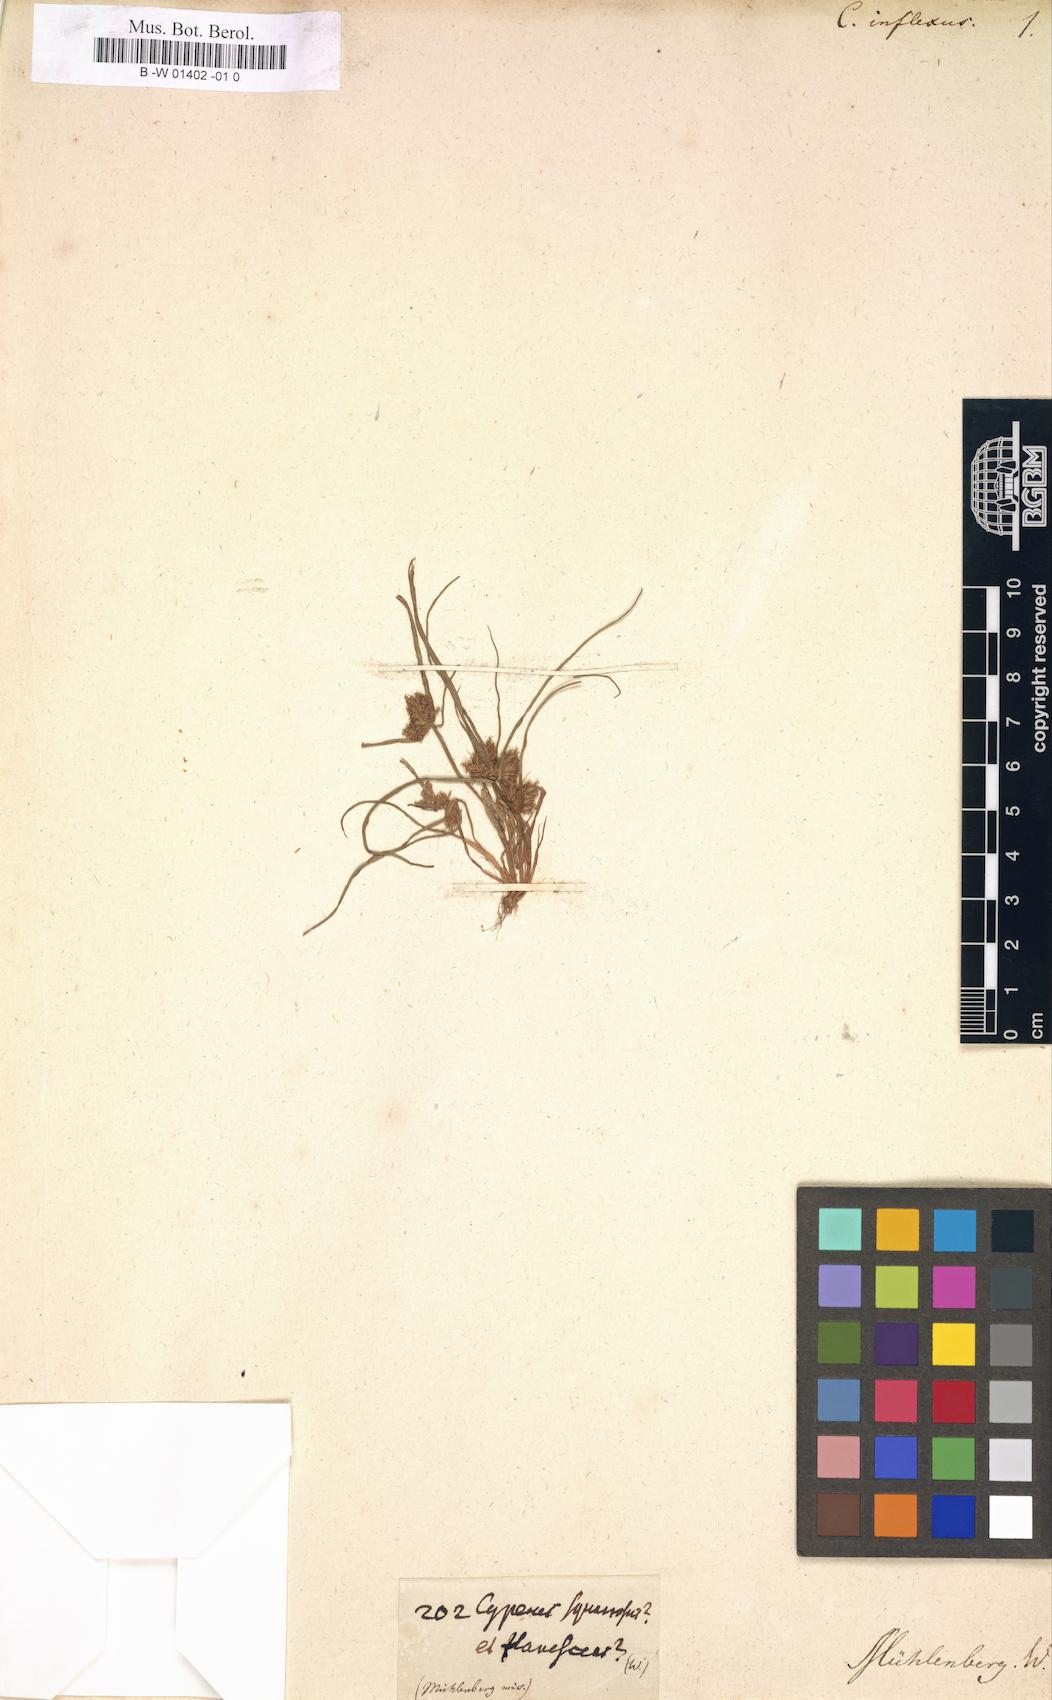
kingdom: Plantae
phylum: Tracheophyta
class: Liliopsida
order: Poales
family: Cyperaceae
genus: Cyperus
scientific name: Cyperus squarrosus
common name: Awned cyperus
